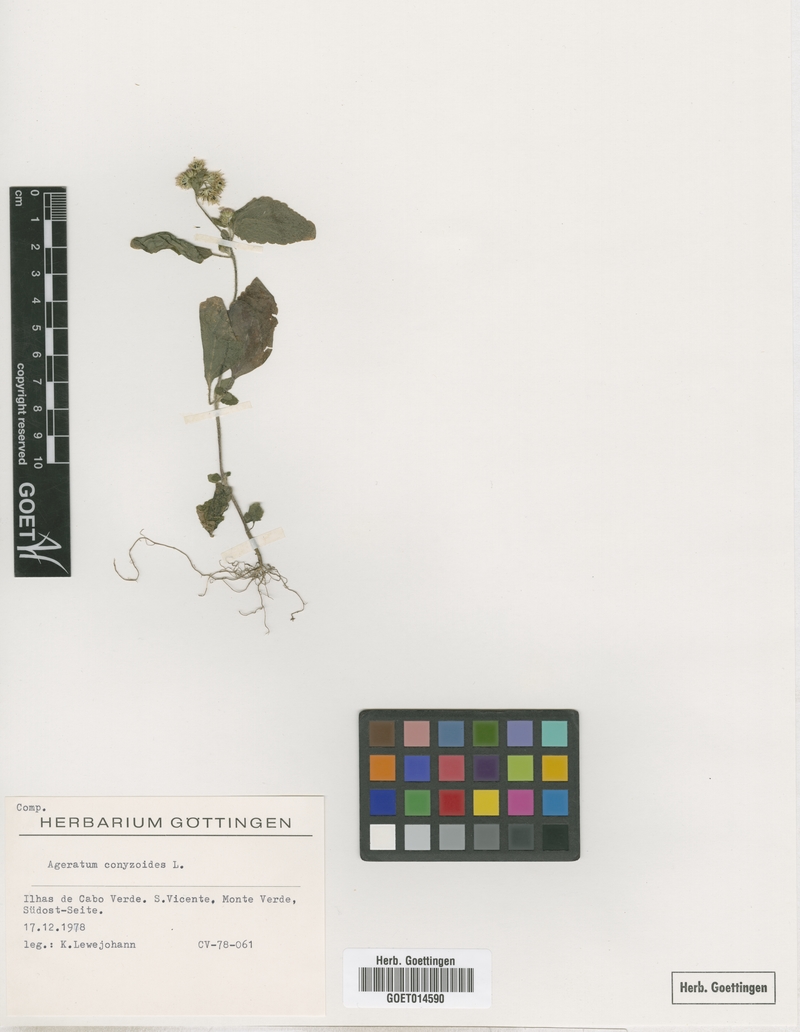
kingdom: Plantae
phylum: Tracheophyta
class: Magnoliopsida
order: Asterales
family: Asteraceae
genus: Ageratum
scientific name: Ageratum conyzoides
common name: Tropical whiteweed
